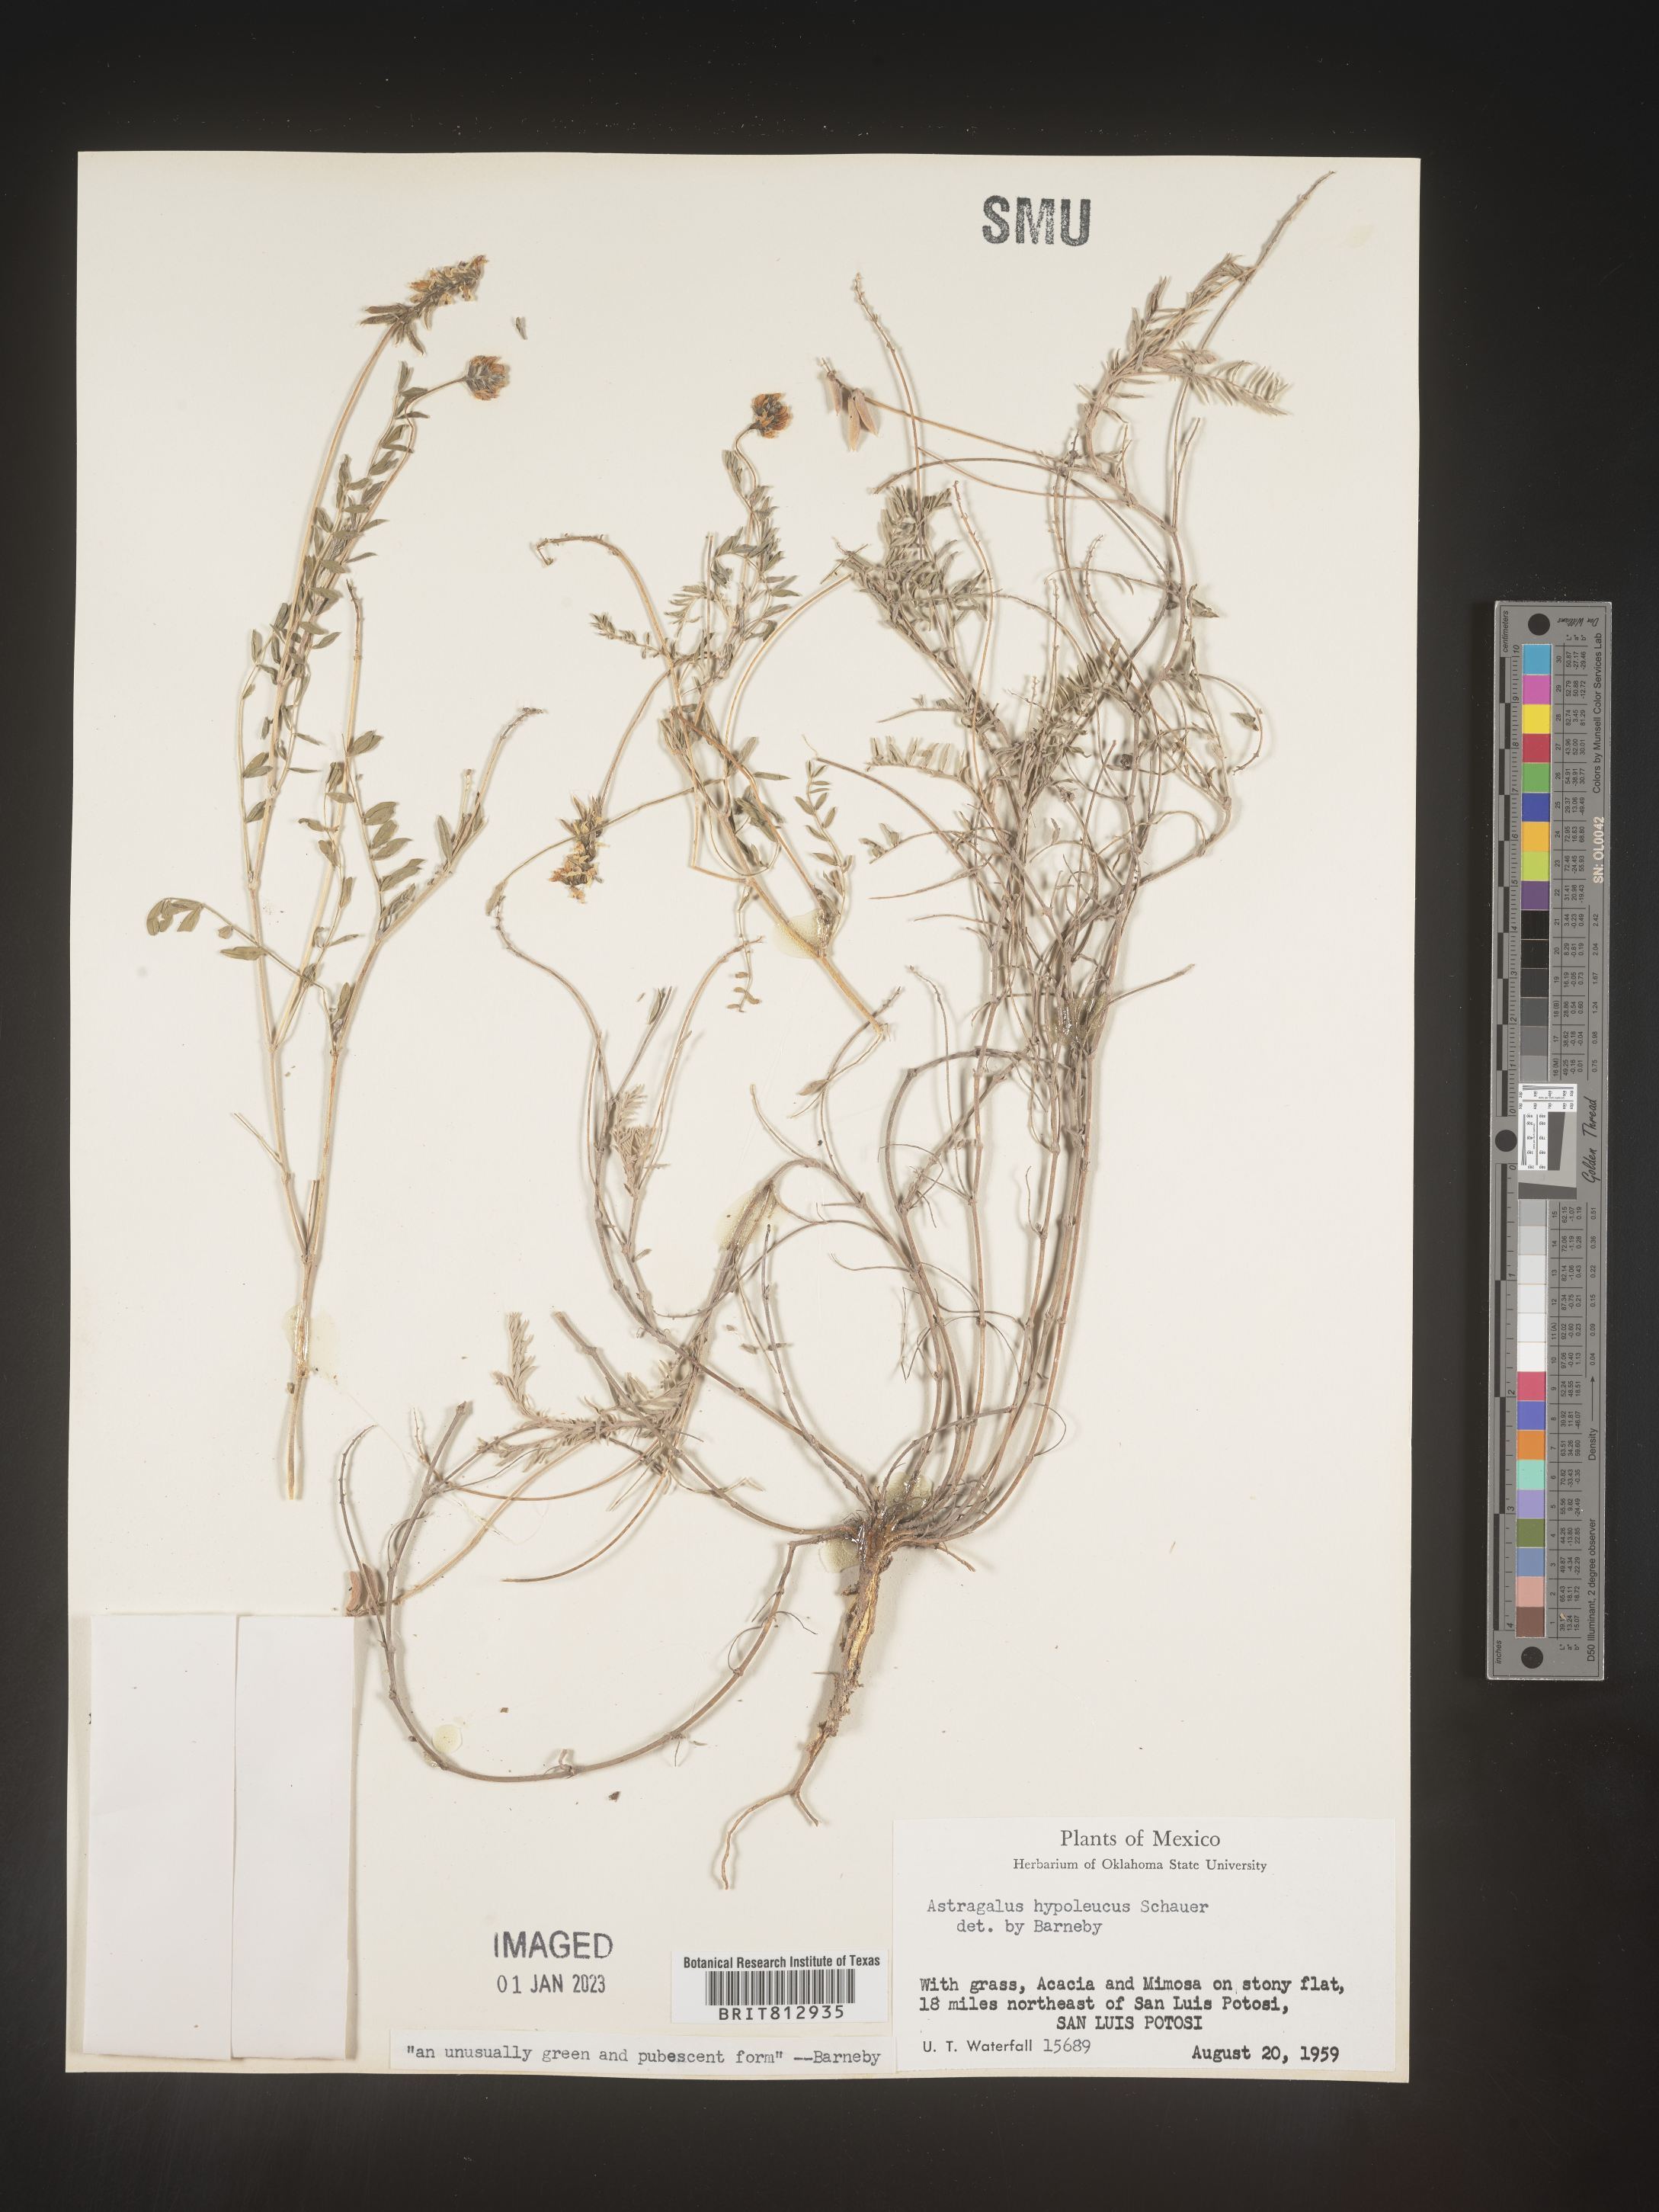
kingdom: Plantae
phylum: Tracheophyta
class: Magnoliopsida
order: Fabales
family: Fabaceae
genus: Astragalus
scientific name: Astragalus
